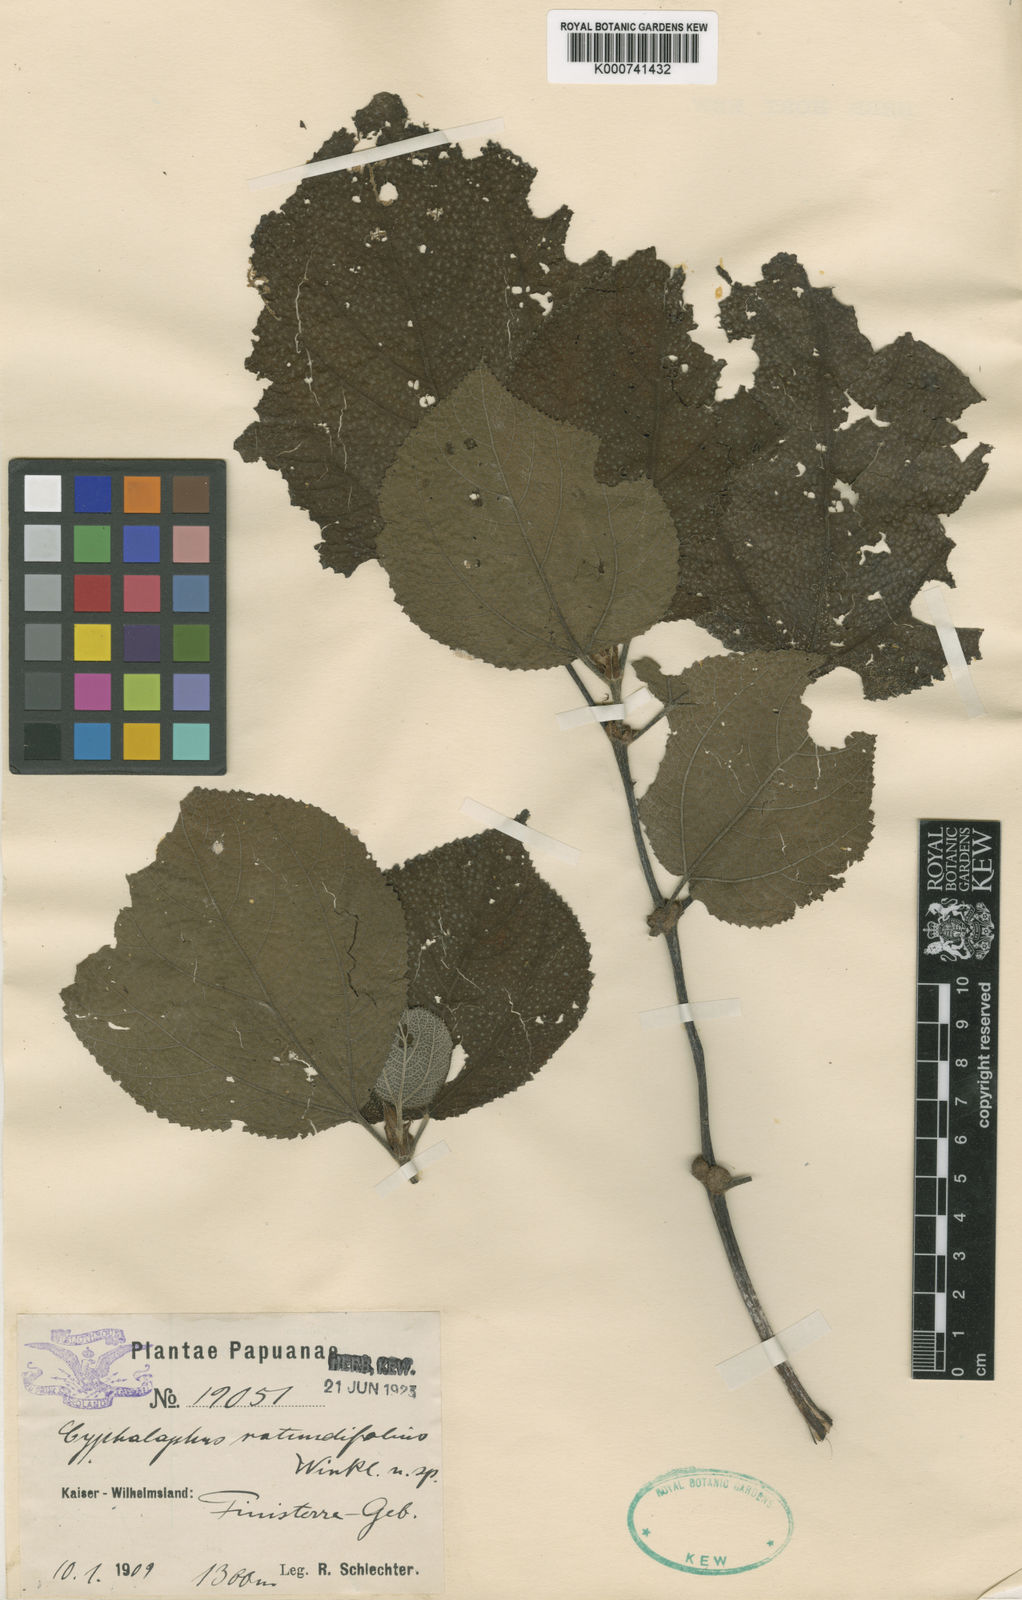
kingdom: Plantae
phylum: Tracheophyta
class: Magnoliopsida
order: Rosales
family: Urticaceae
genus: Cypholophus
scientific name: Cypholophus rotundifolius
